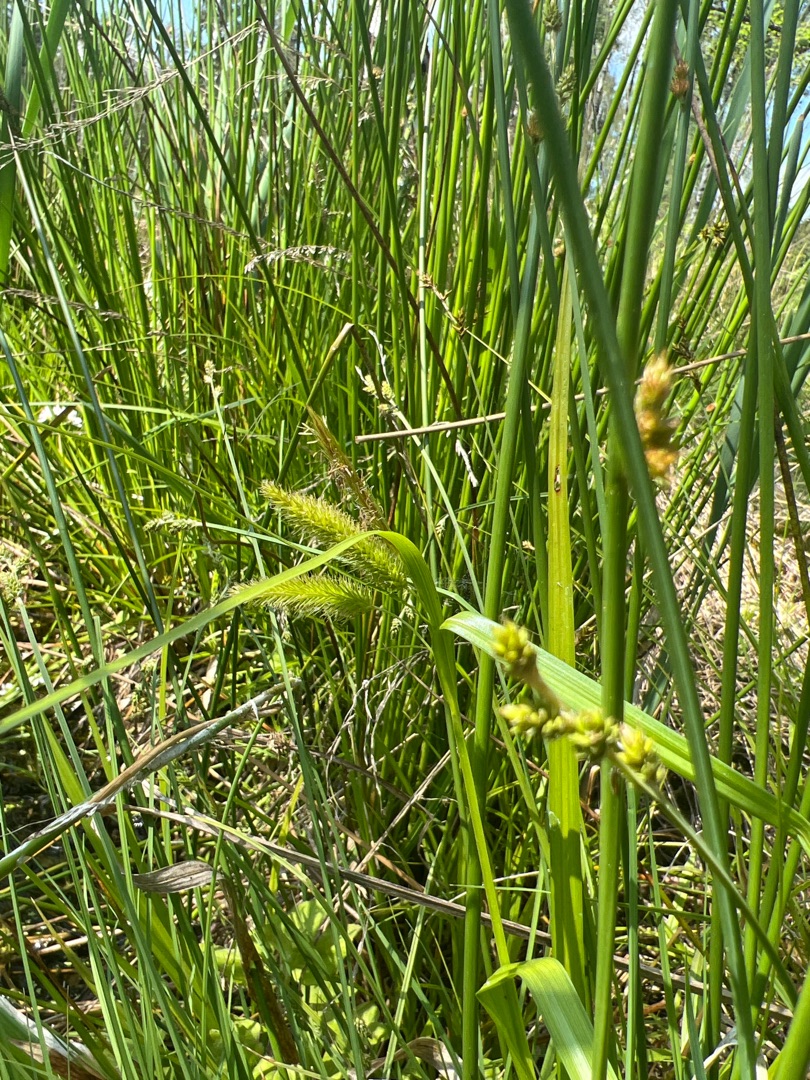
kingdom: Plantae
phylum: Tracheophyta
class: Liliopsida
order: Poales
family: Cyperaceae
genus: Carex
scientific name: Carex pseudocyperus
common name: Knippe-star
